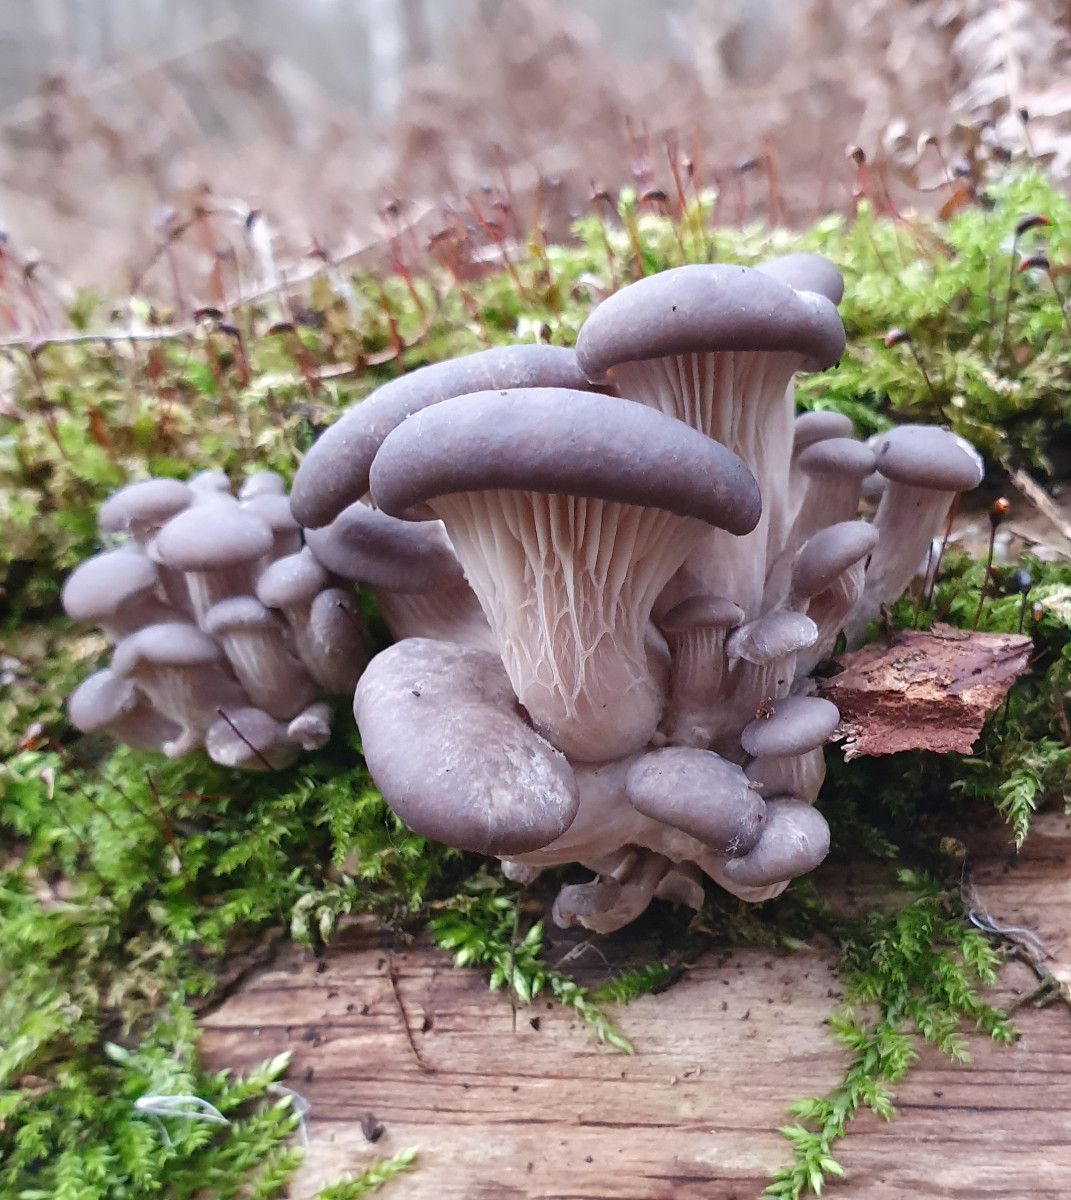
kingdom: Fungi
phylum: Basidiomycota
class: Agaricomycetes
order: Agaricales
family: Pleurotaceae
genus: Pleurotus
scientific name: Pleurotus ostreatus
